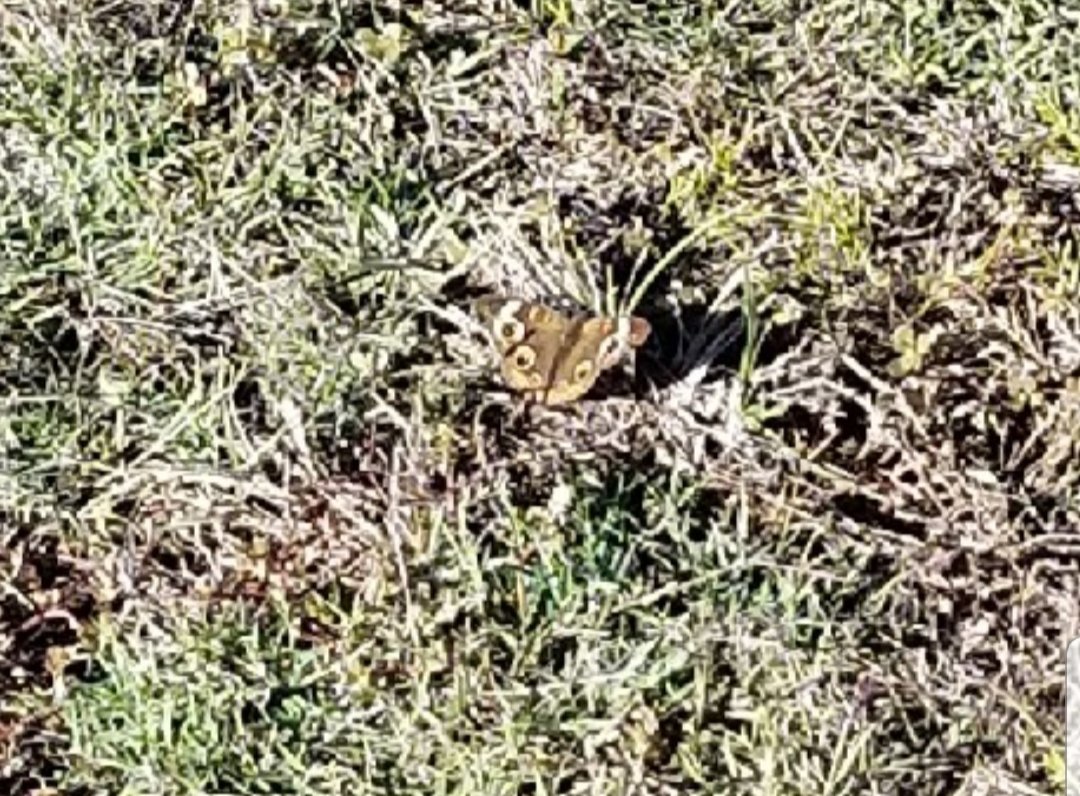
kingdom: Animalia
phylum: Arthropoda
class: Insecta
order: Lepidoptera
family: Nymphalidae
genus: Junonia
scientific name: Junonia coenia
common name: Common Buckeye
